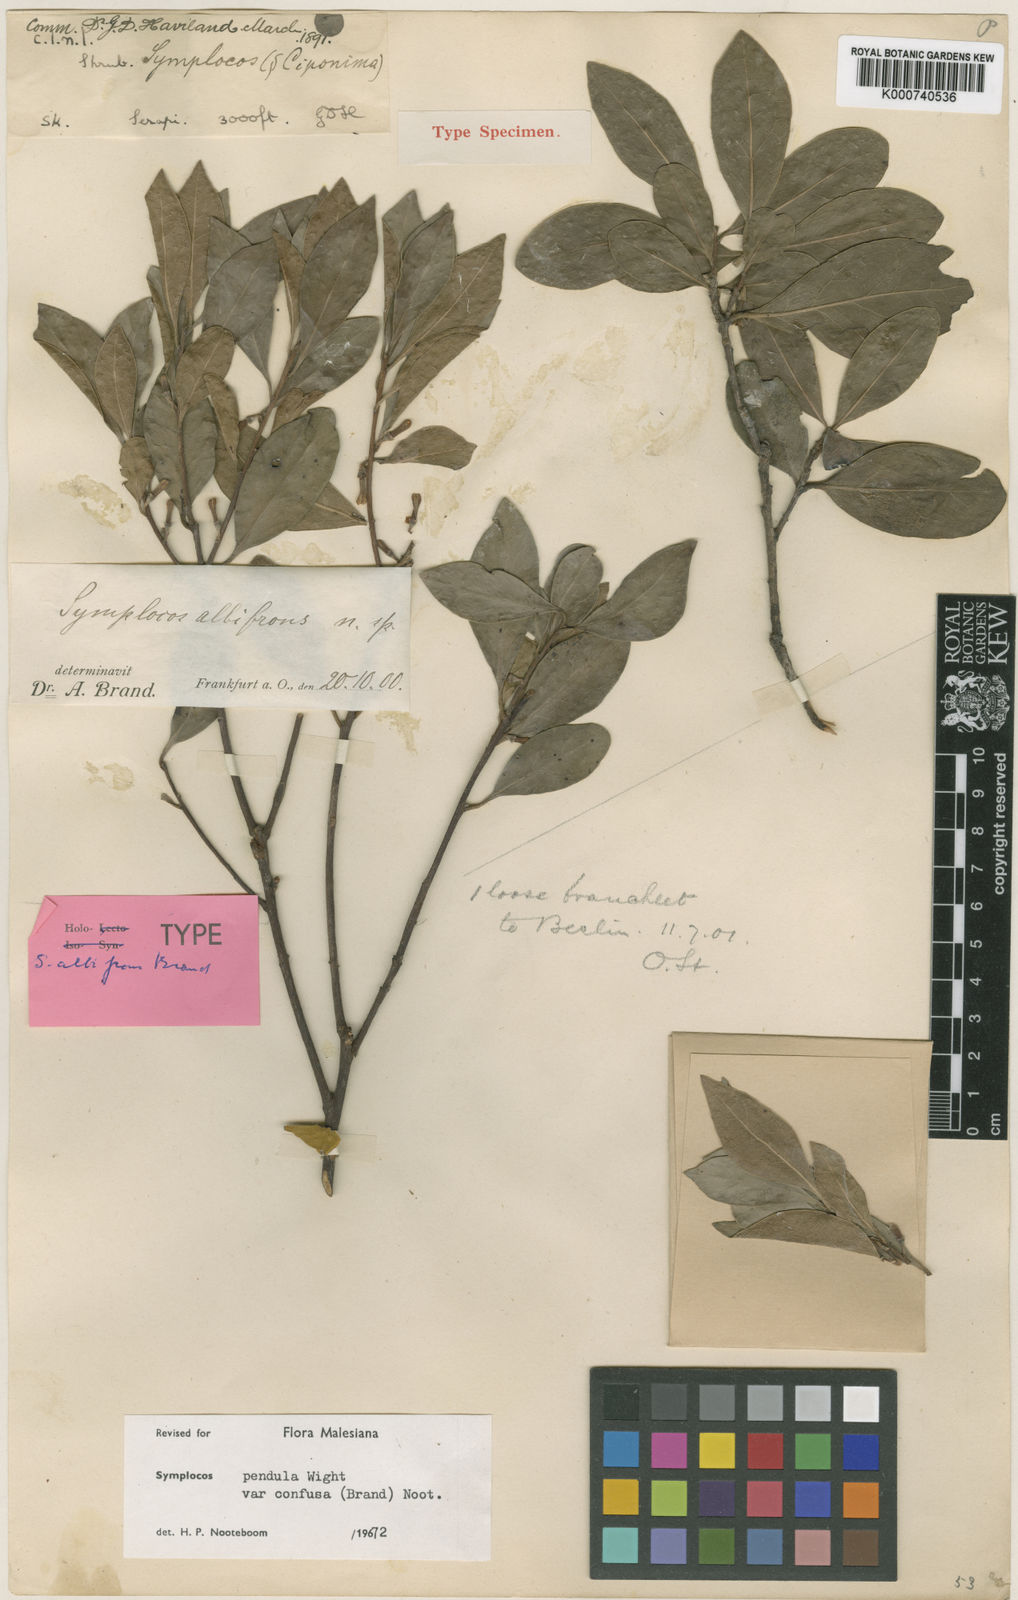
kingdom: Plantae
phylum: Tracheophyta
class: Magnoliopsida
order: Ericales
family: Symplocaceae
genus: Symplocos
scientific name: Symplocos pendula
